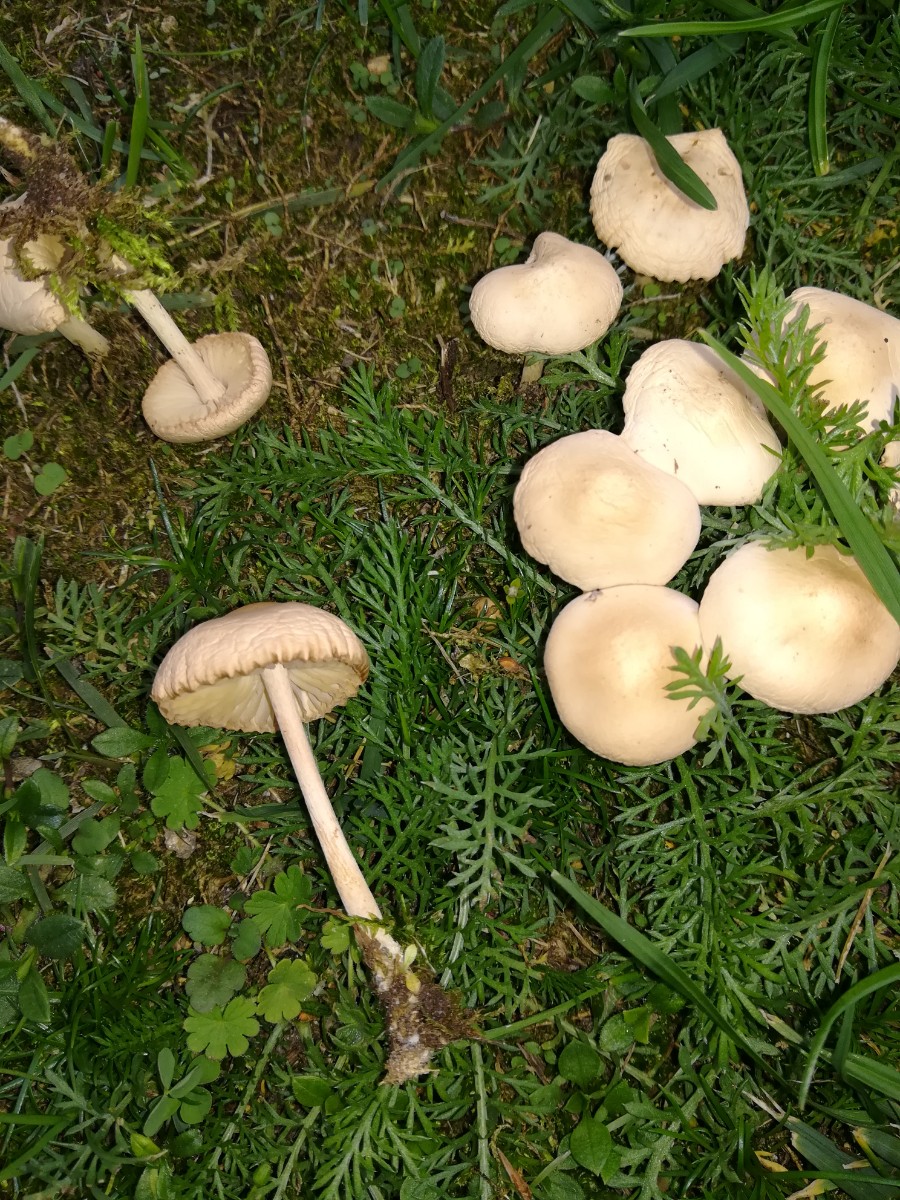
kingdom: Fungi
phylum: Basidiomycota
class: Agaricomycetes
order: Agaricales
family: Marasmiaceae
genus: Marasmius
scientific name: Marasmius oreades
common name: elledans-bruskhat
